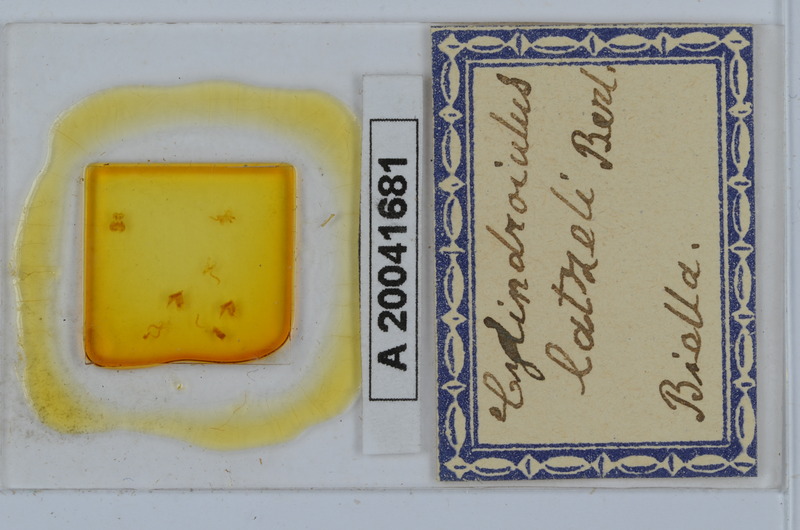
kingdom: Animalia
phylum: Arthropoda
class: Diplopoda
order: Julida
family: Julidae
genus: Cylindroiulus
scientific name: Cylindroiulus latzeli
